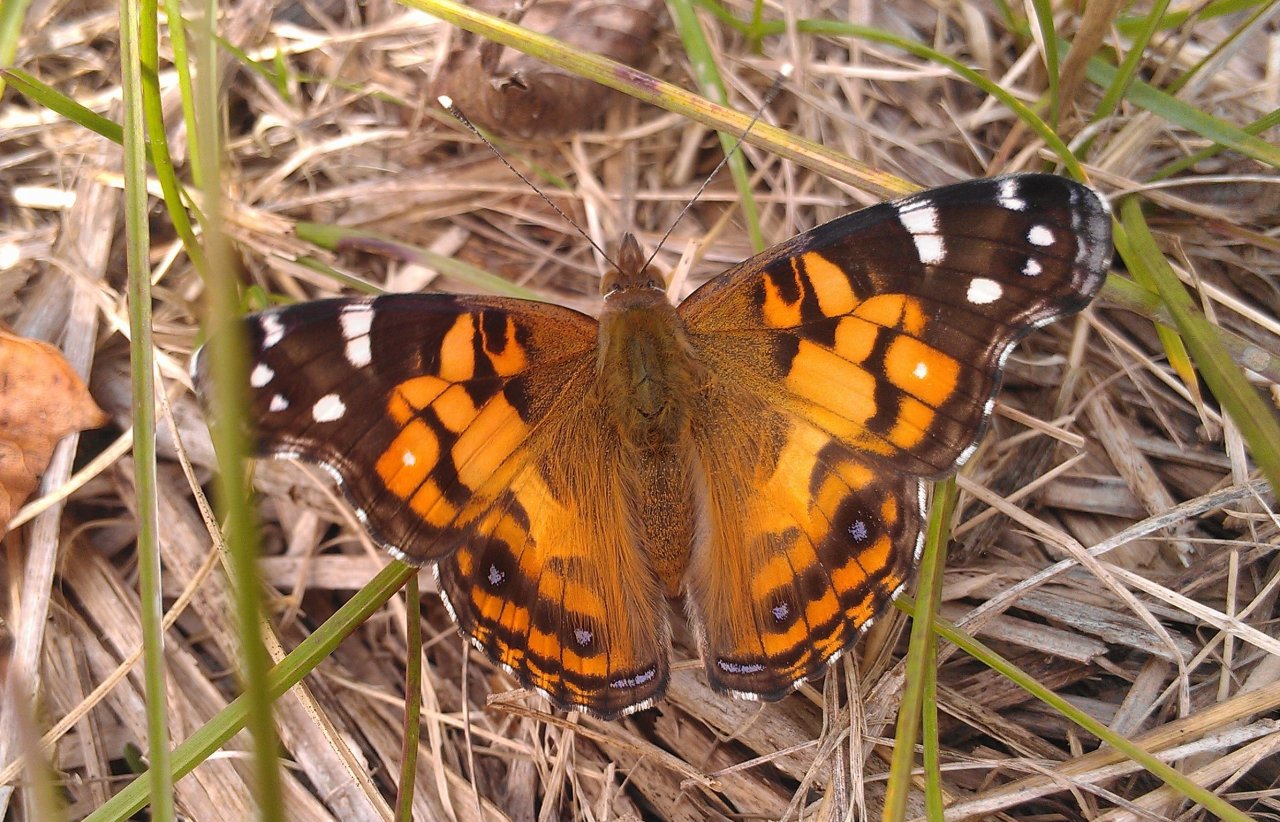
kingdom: Animalia
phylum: Arthropoda
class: Insecta
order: Lepidoptera
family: Nymphalidae
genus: Vanessa
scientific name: Vanessa virginiensis
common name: American Lady
